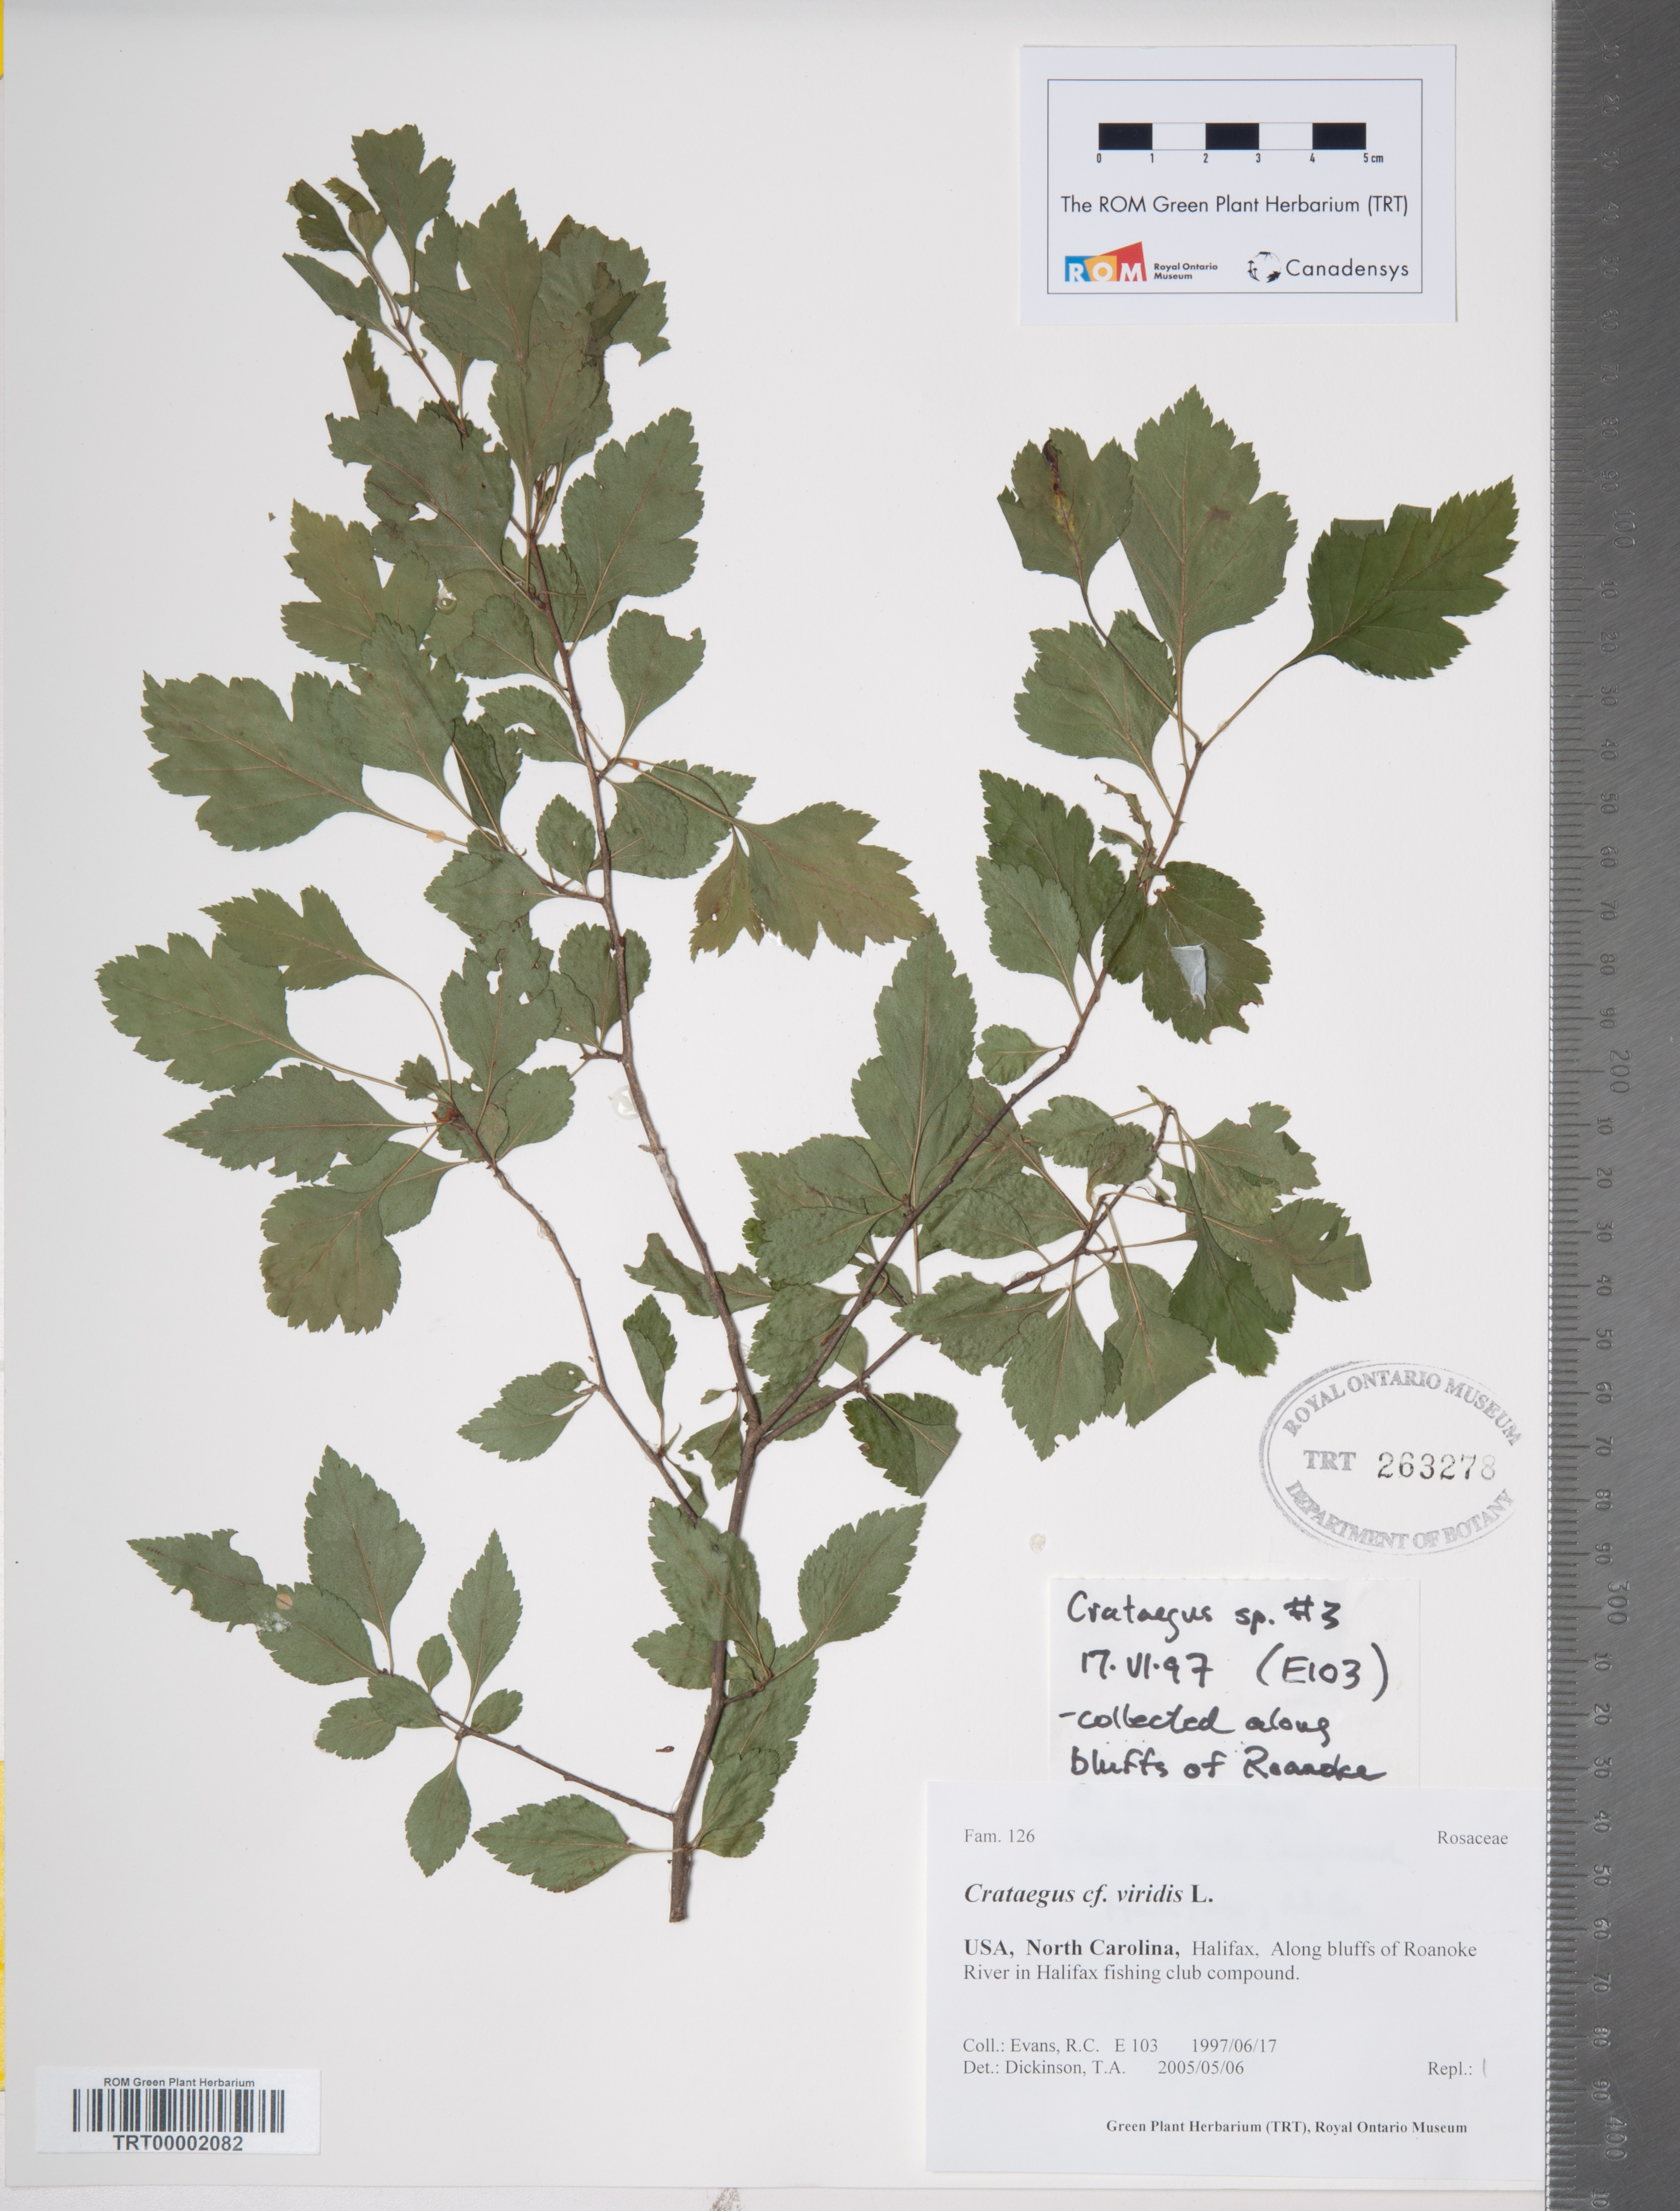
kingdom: Plantae
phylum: Tracheophyta
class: Magnoliopsida
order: Rosales
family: Rosaceae
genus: Crataegus
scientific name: Crataegus viridis
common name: Southernthorn
